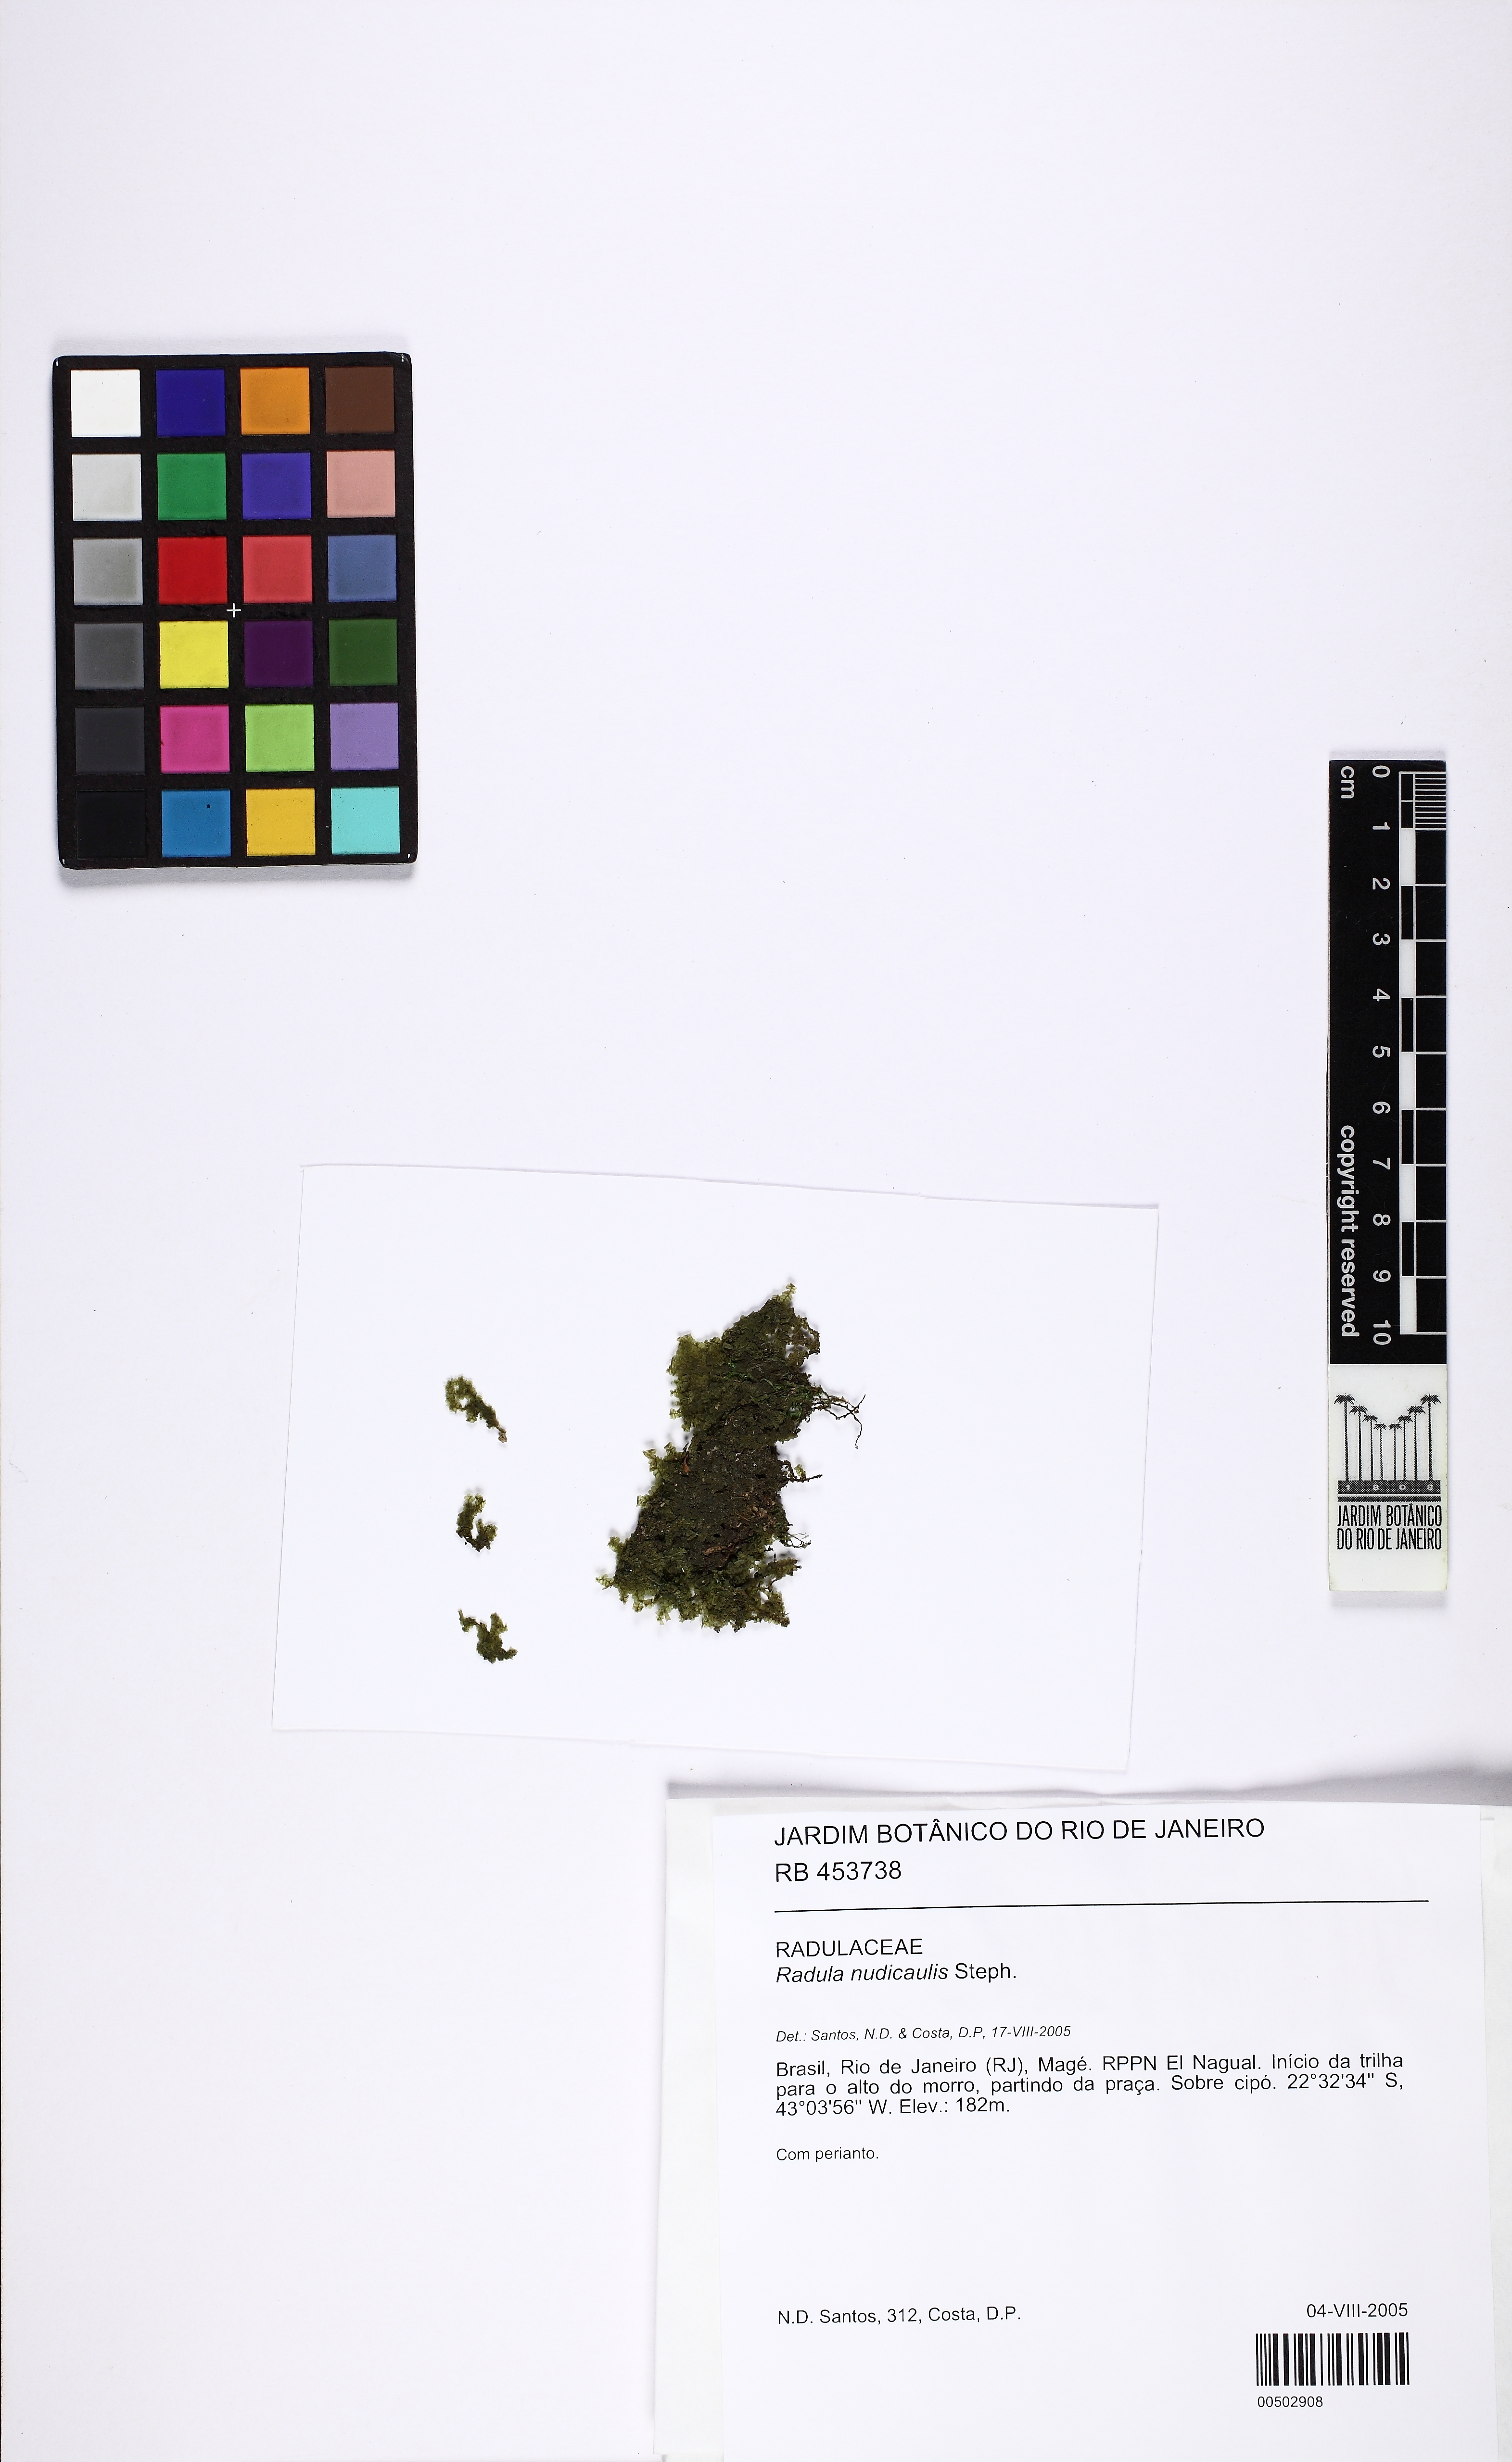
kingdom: Plantae
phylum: Marchantiophyta
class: Jungermanniopsida
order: Porellales
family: Radulaceae
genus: Radula
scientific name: Radula nudicaulis
